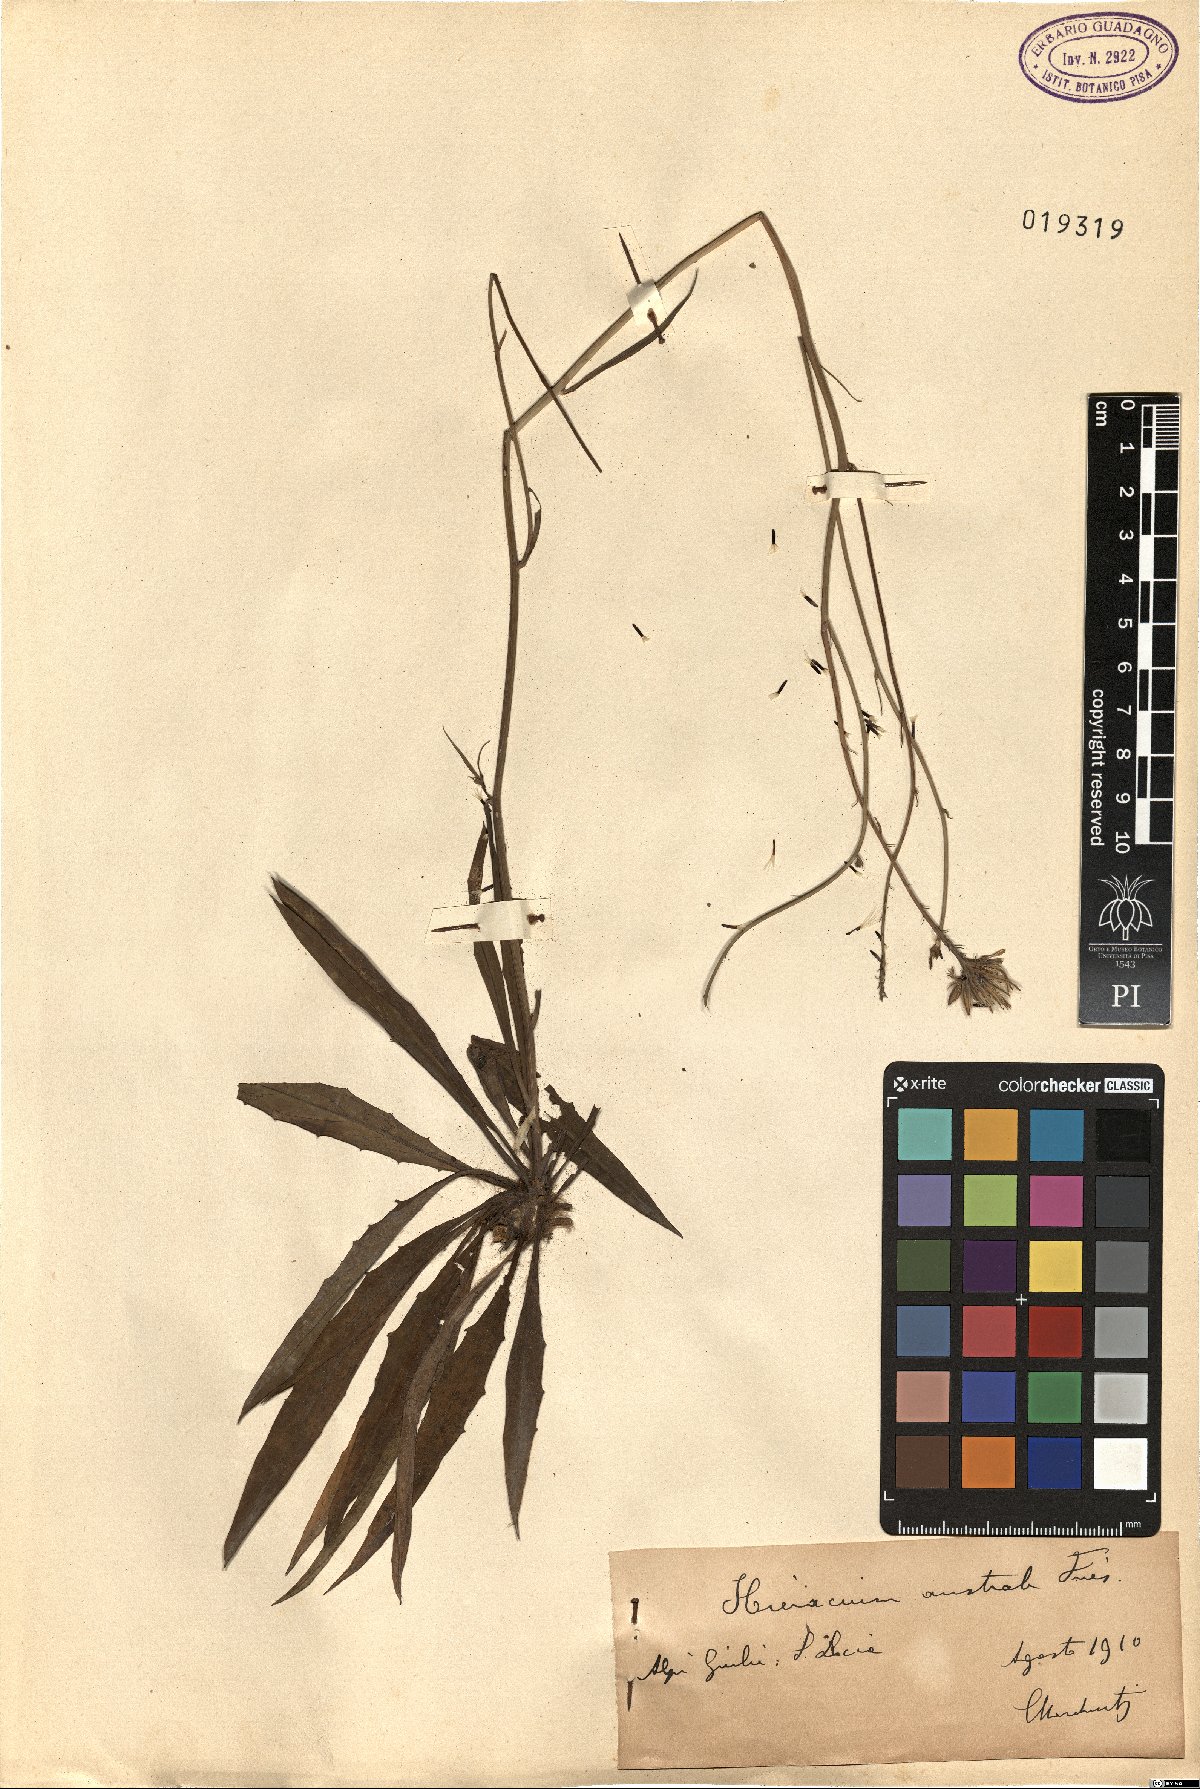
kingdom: Plantae
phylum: Tracheophyta
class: Magnoliopsida
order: Asterales
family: Asteraceae
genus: Hieracium
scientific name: Hieracium australe
